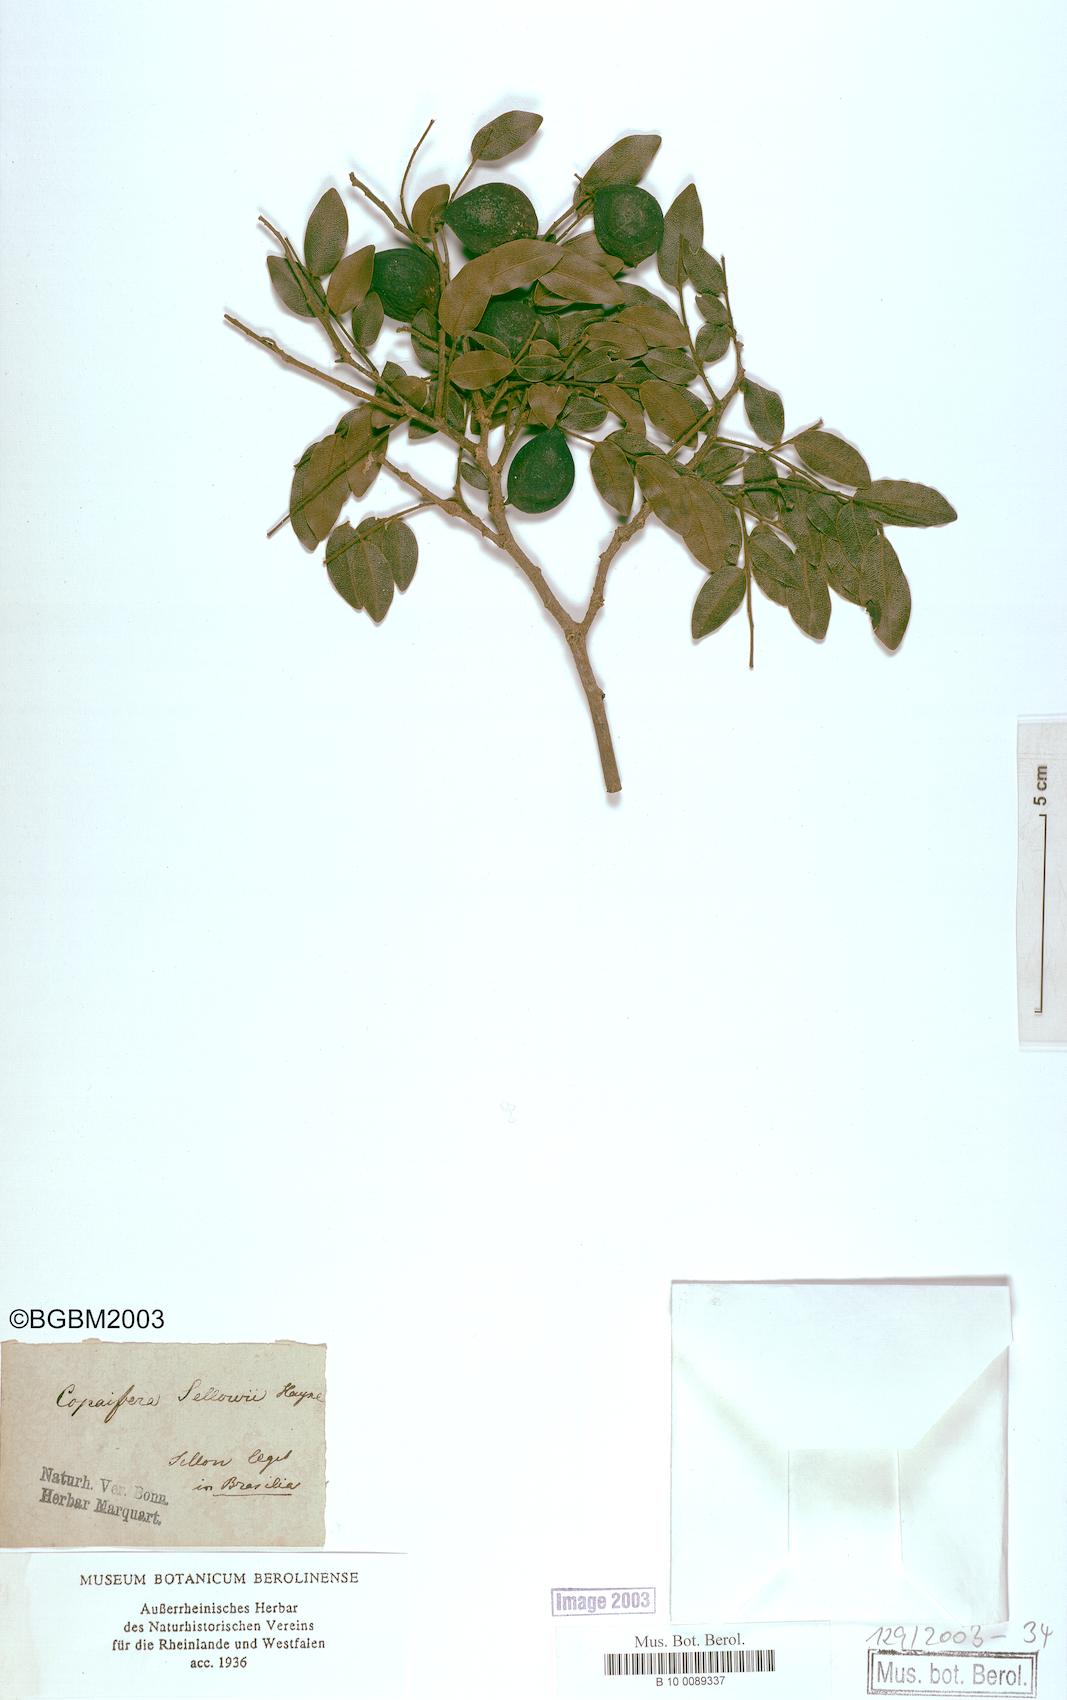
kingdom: Plantae
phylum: Tracheophyta
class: Magnoliopsida
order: Fabales
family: Fabaceae
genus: Copaifera
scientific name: Copaifera langsdorffii
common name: Brazilian diesel tree
